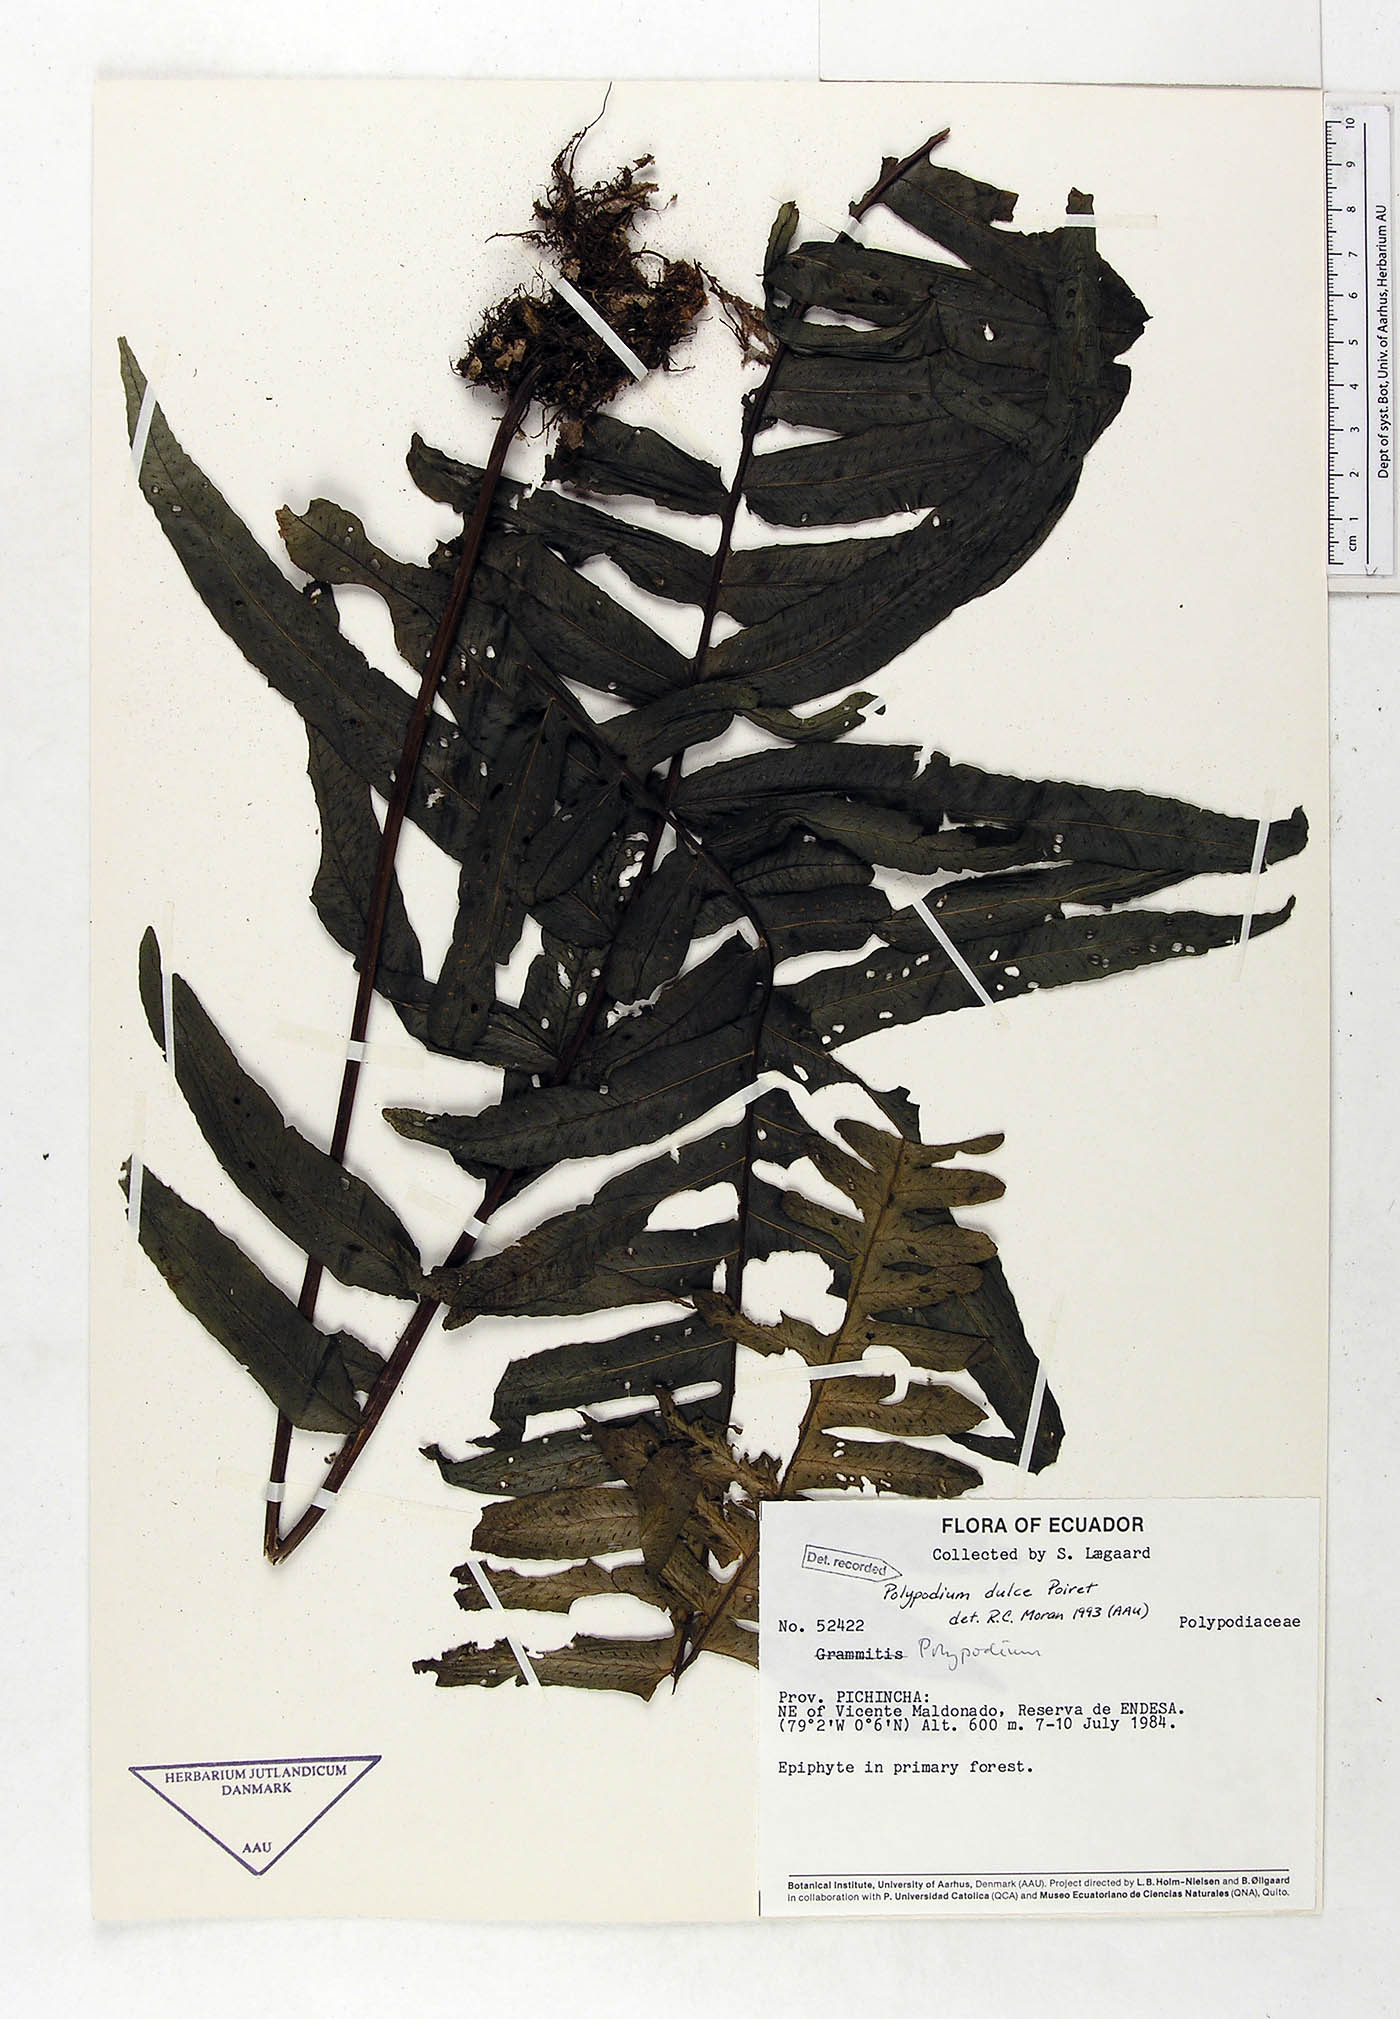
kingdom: Plantae
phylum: Tracheophyta
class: Polypodiopsida
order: Polypodiales
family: Polypodiaceae
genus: Pecluma
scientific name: Pecluma dulcis
